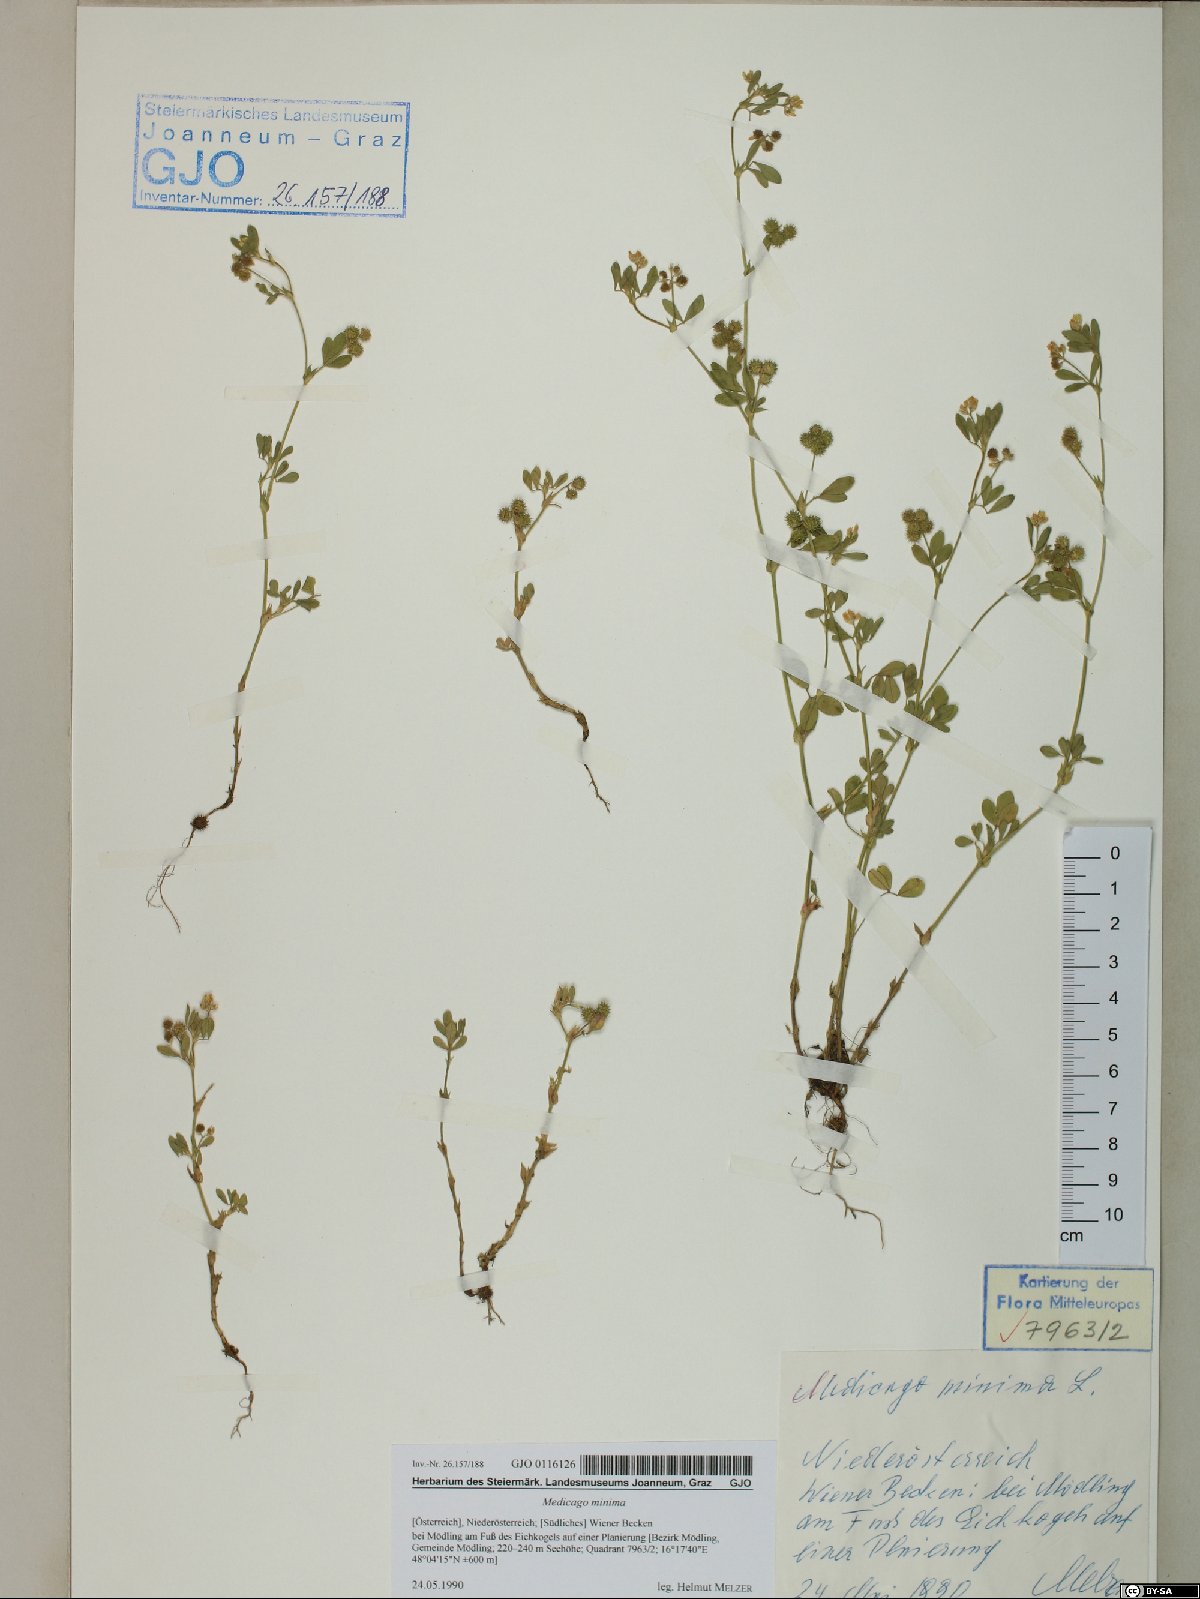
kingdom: Plantae
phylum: Tracheophyta
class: Magnoliopsida
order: Fabales
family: Fabaceae
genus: Medicago
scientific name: Medicago minima
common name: Little bur-clover
